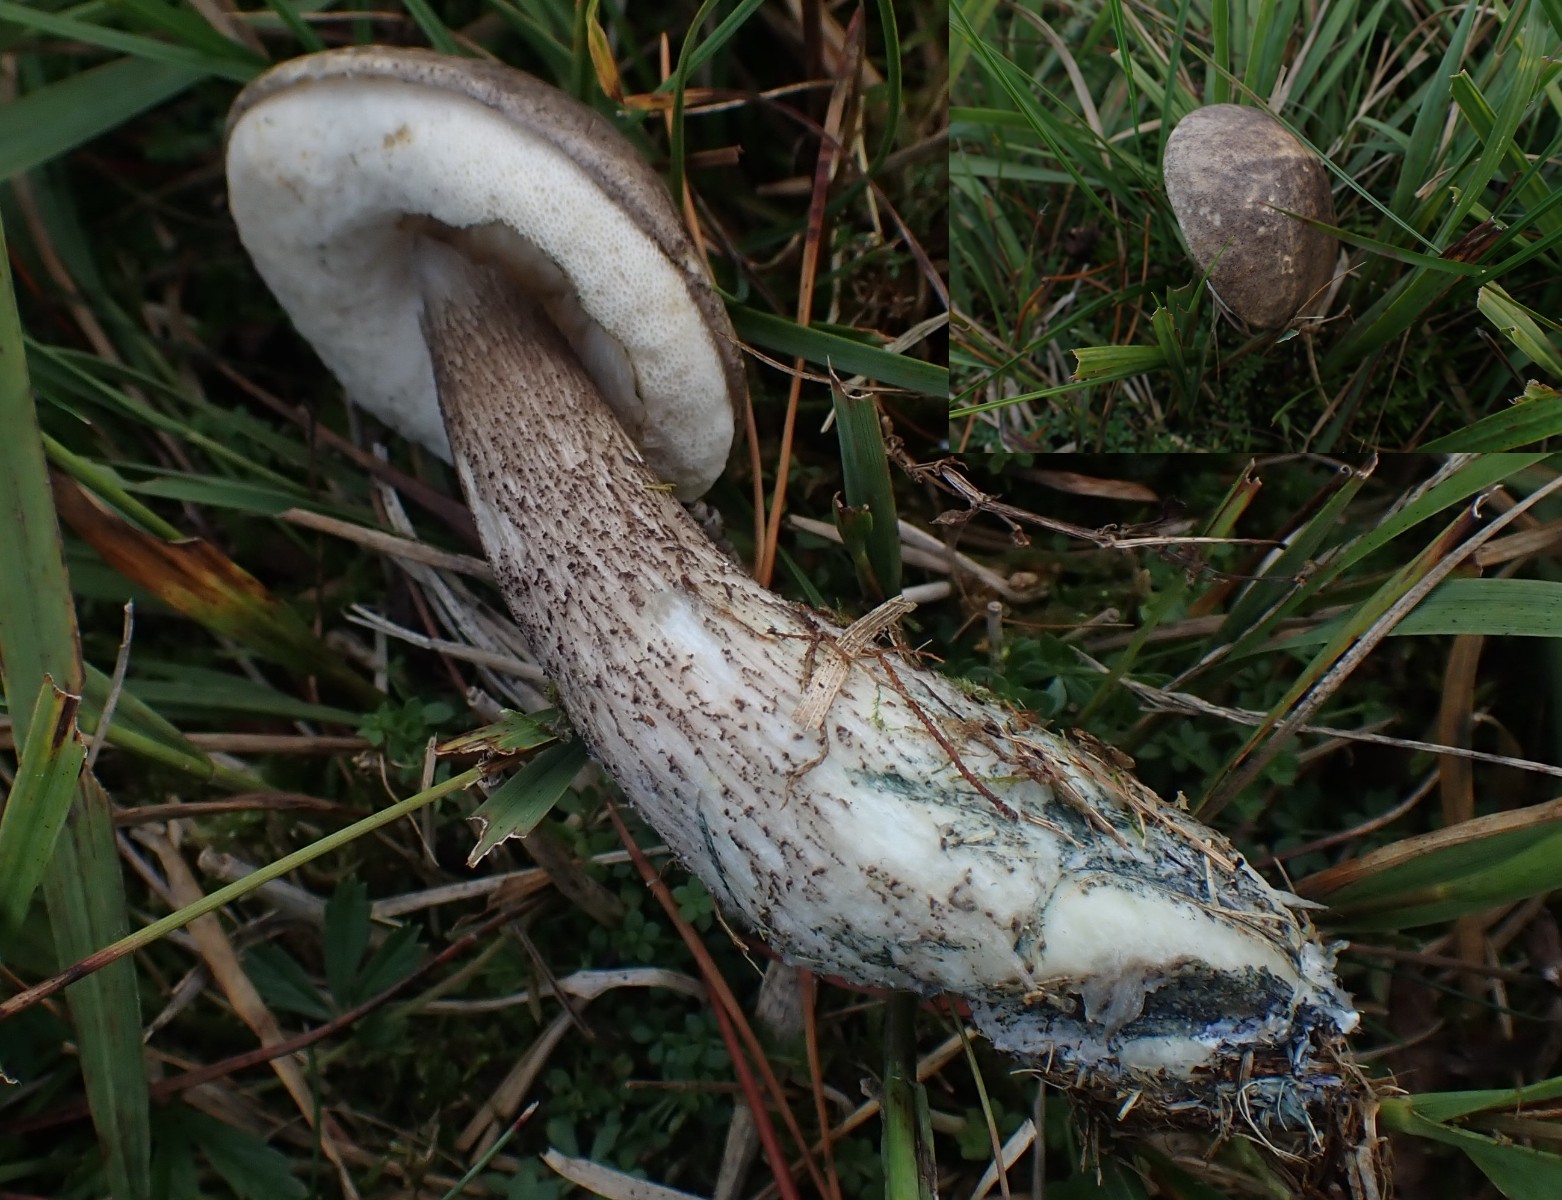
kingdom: Fungi
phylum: Basidiomycota
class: Agaricomycetes
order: Boletales
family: Boletaceae
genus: Leccinum
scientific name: Leccinum variicolor
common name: flammet skælrørhat
